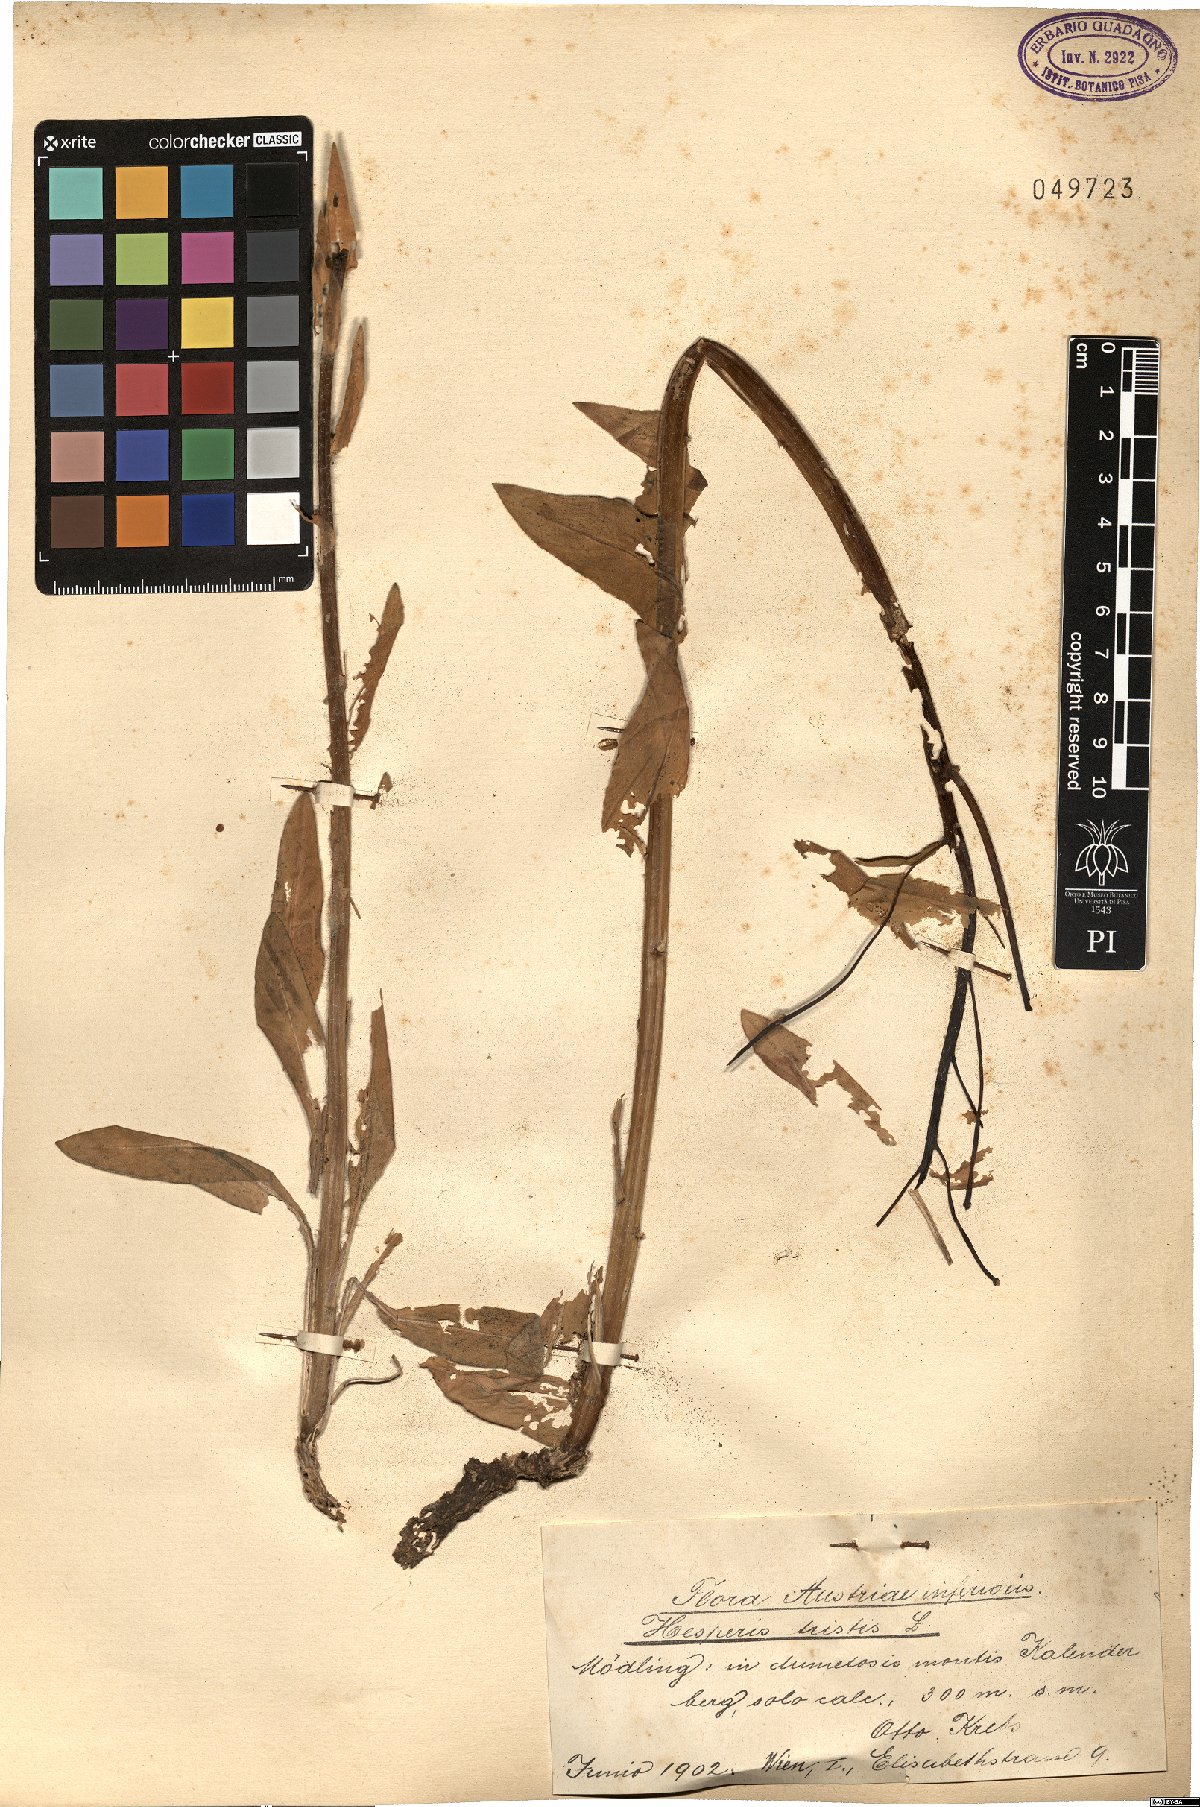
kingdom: Plantae
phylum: Tracheophyta
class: Magnoliopsida
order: Brassicales
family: Brassicaceae
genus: Hesperis
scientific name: Hesperis tristis
